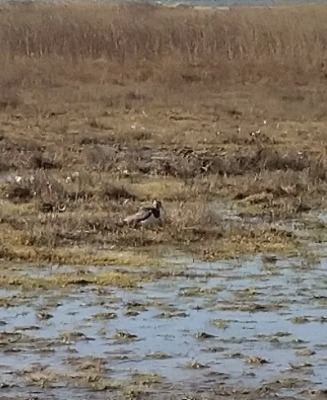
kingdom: Animalia
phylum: Chordata
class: Aves
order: Charadriiformes
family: Charadriidae
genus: Vanellus
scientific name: Vanellus vanellus
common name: Vibe
